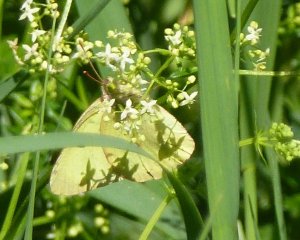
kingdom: Animalia
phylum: Arthropoda
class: Insecta
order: Lepidoptera
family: Pieridae
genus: Colias
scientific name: Colias philodice
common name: Clouded Sulphur
